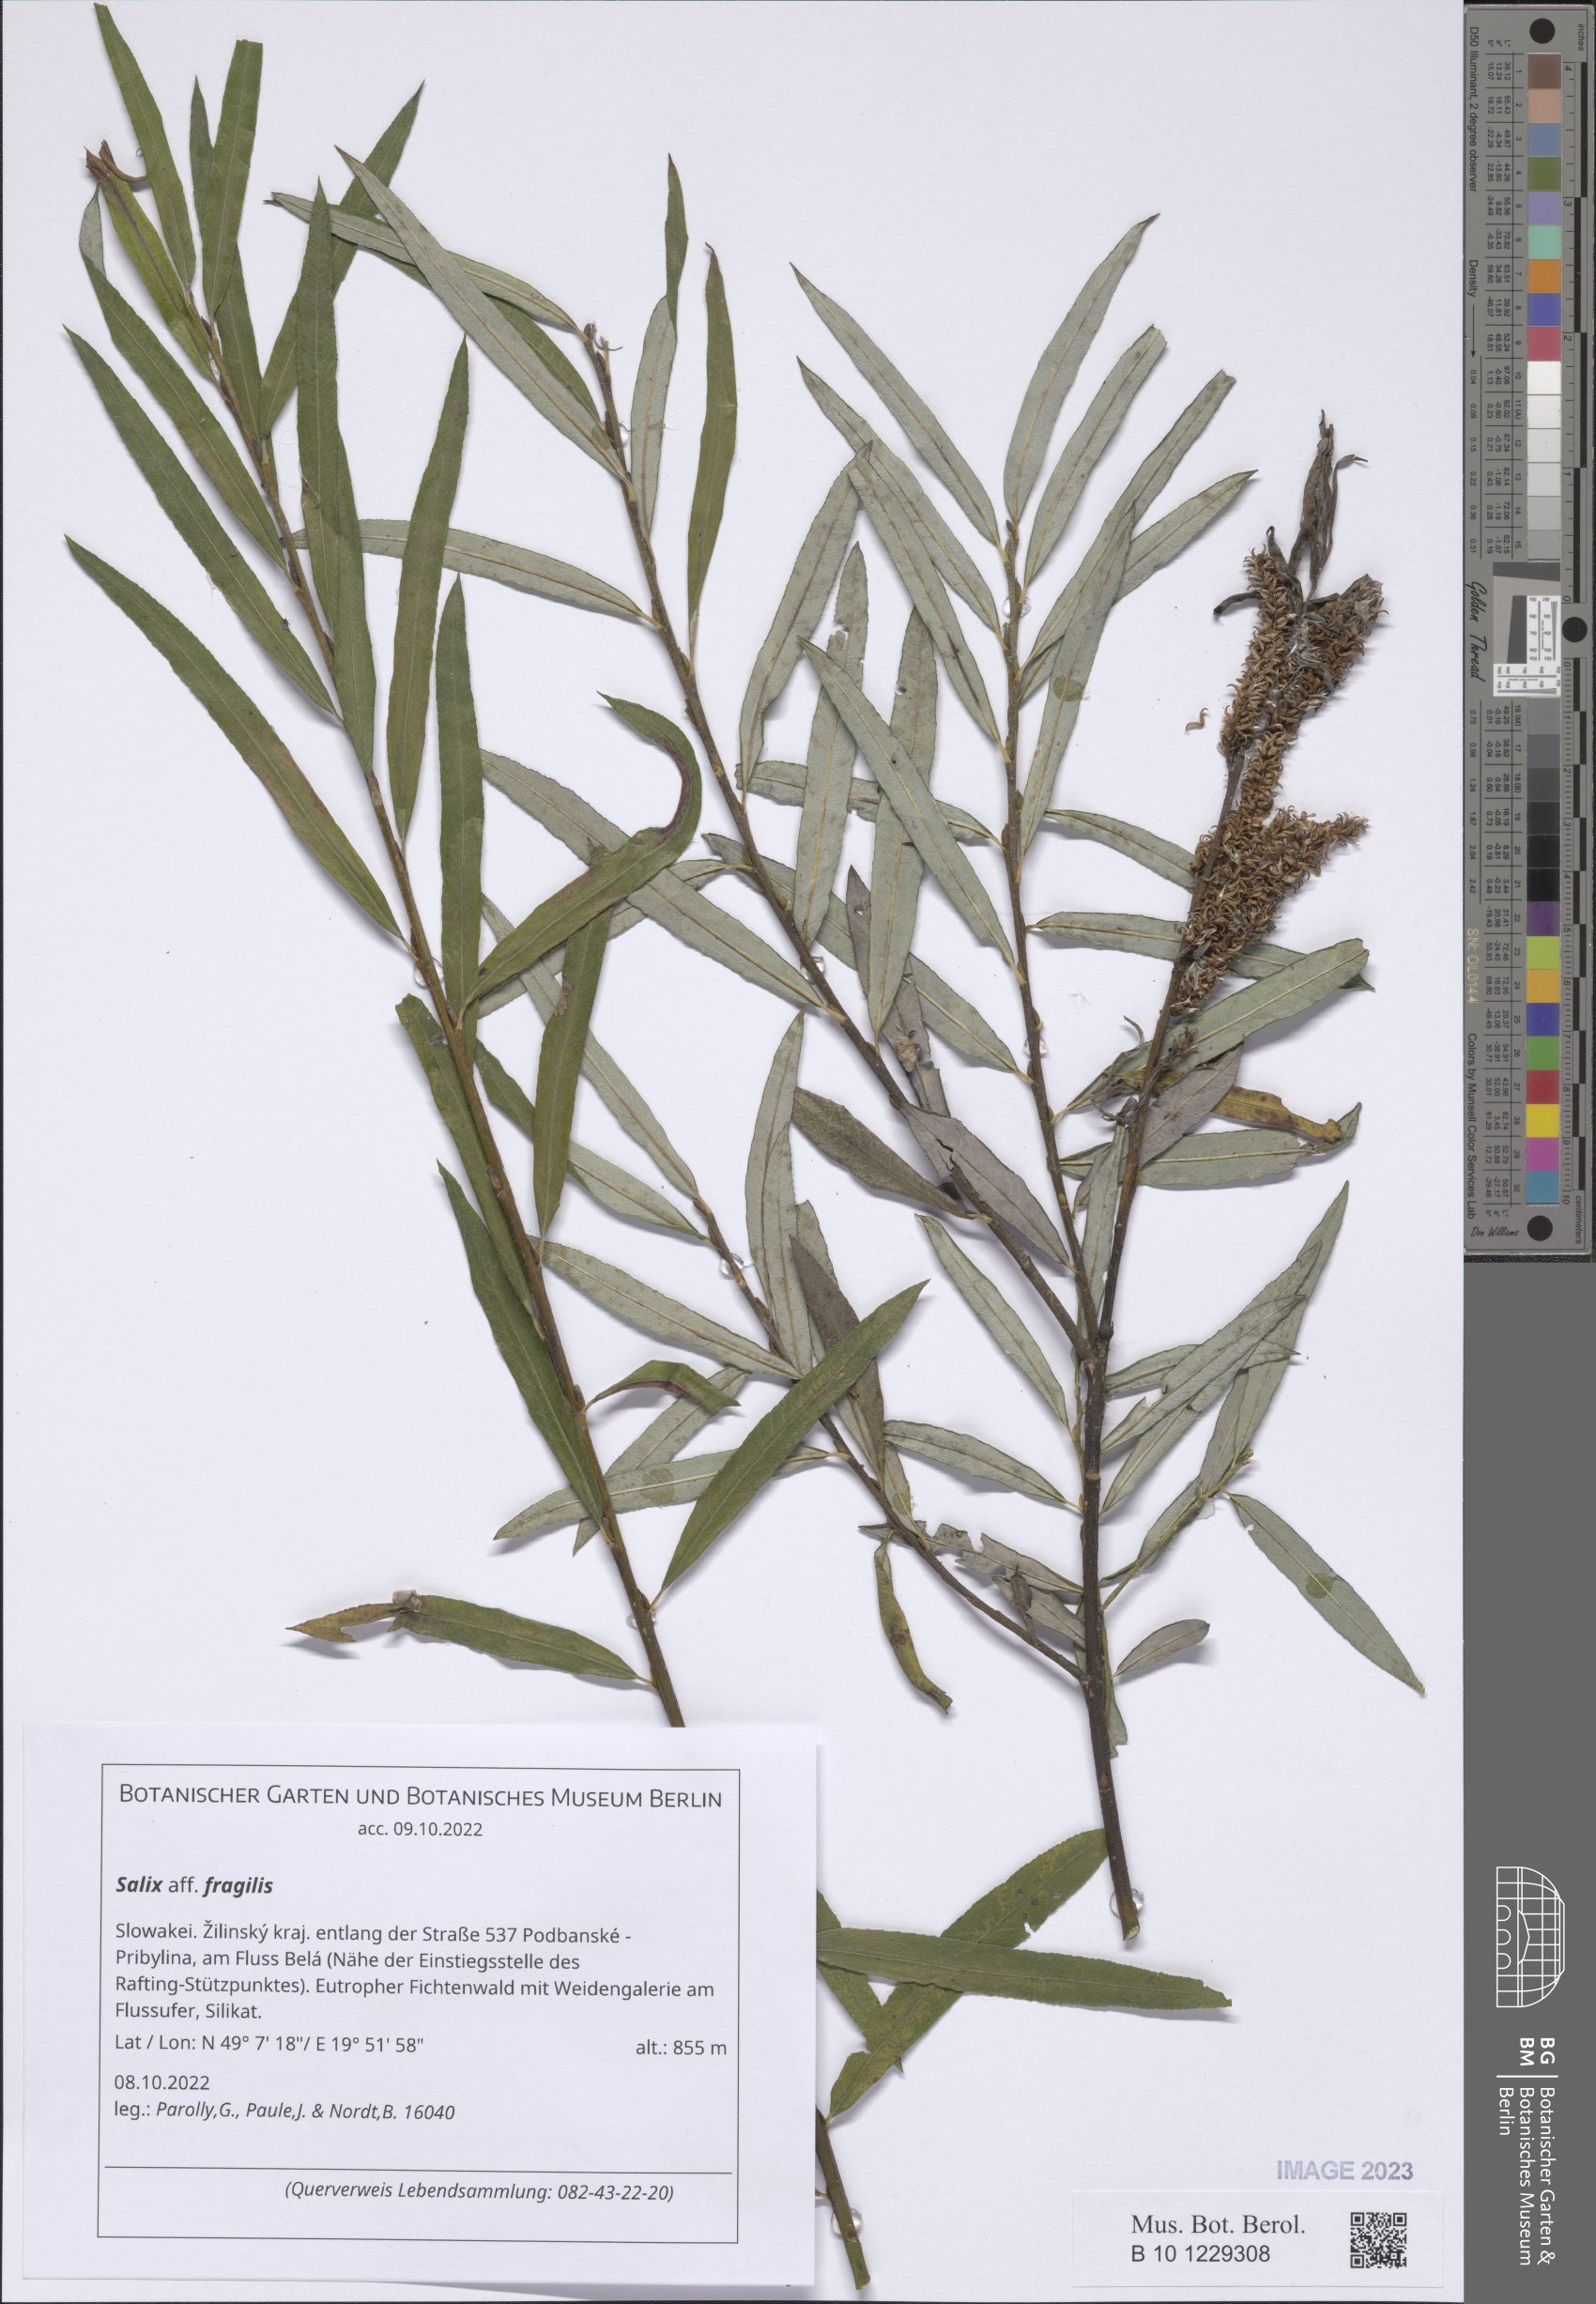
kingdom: Plantae
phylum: Tracheophyta
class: Magnoliopsida
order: Malpighiales
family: Salicaceae
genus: Salix
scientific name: Salix fragilis
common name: Crack willow
